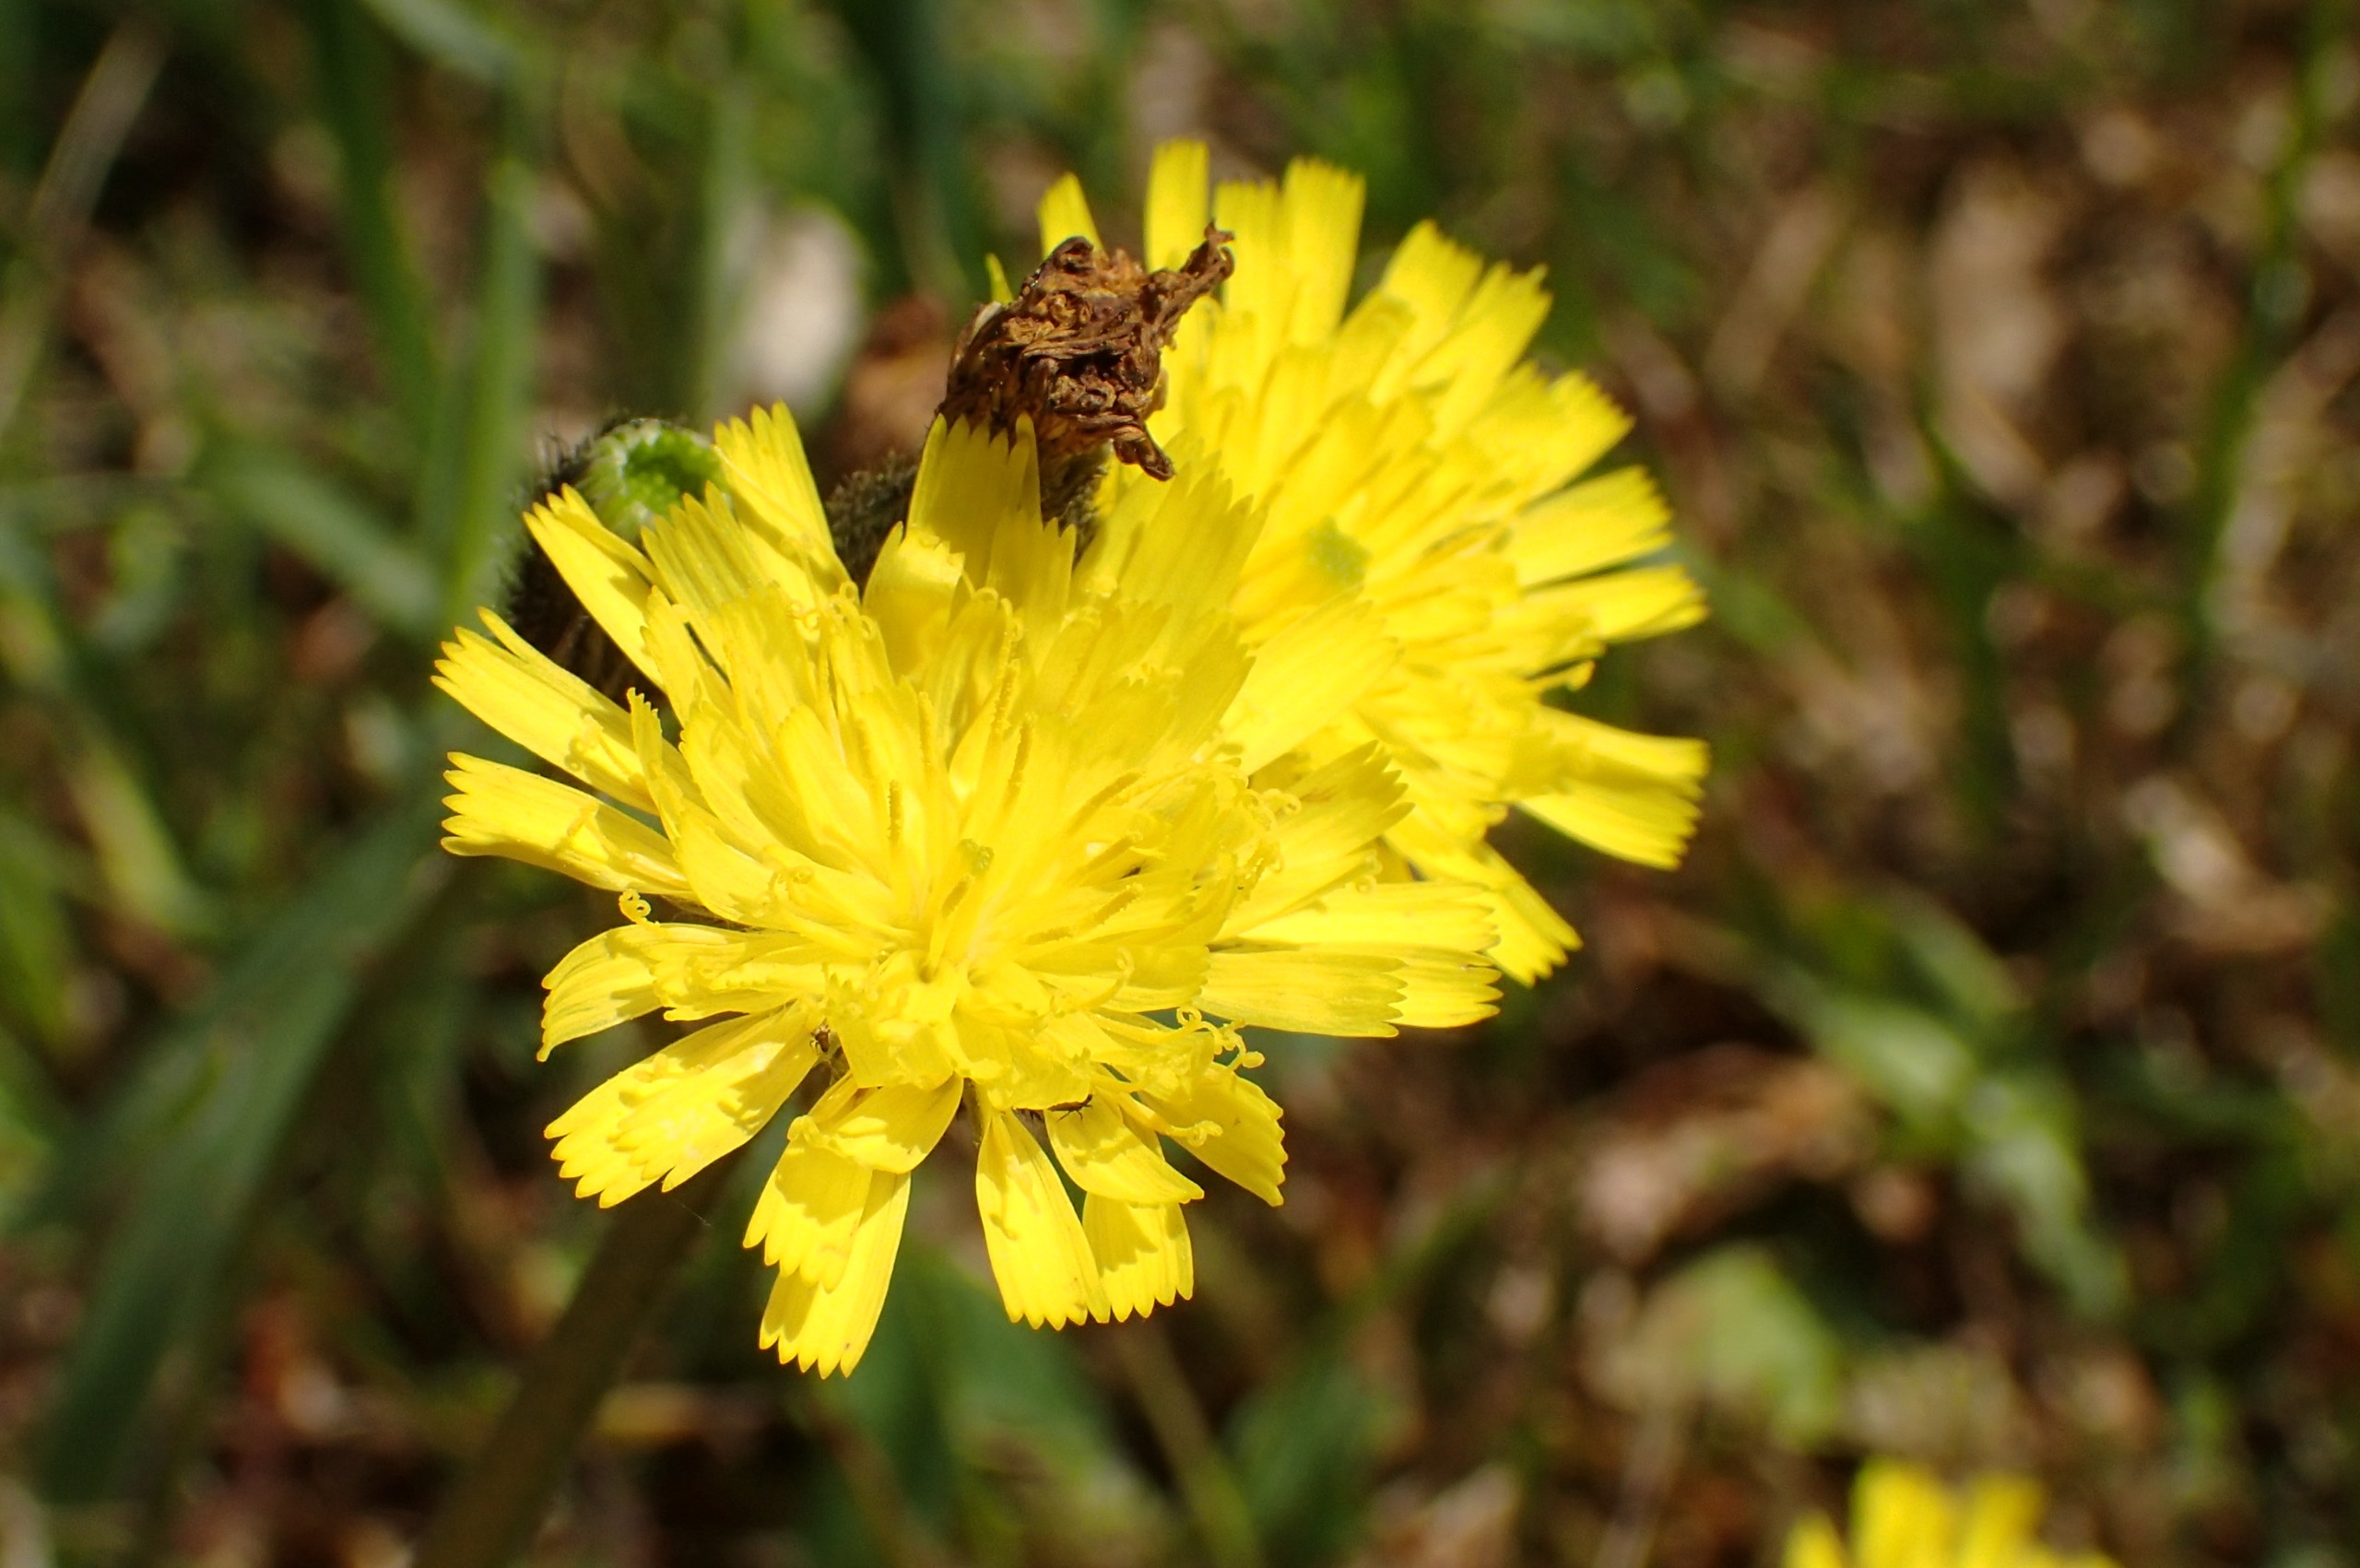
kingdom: Plantae
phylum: Tracheophyta
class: Magnoliopsida
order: Asterales
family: Asteraceae
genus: Pilosella
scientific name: Pilosella lactucella
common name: Lancetbladet høgeurt
